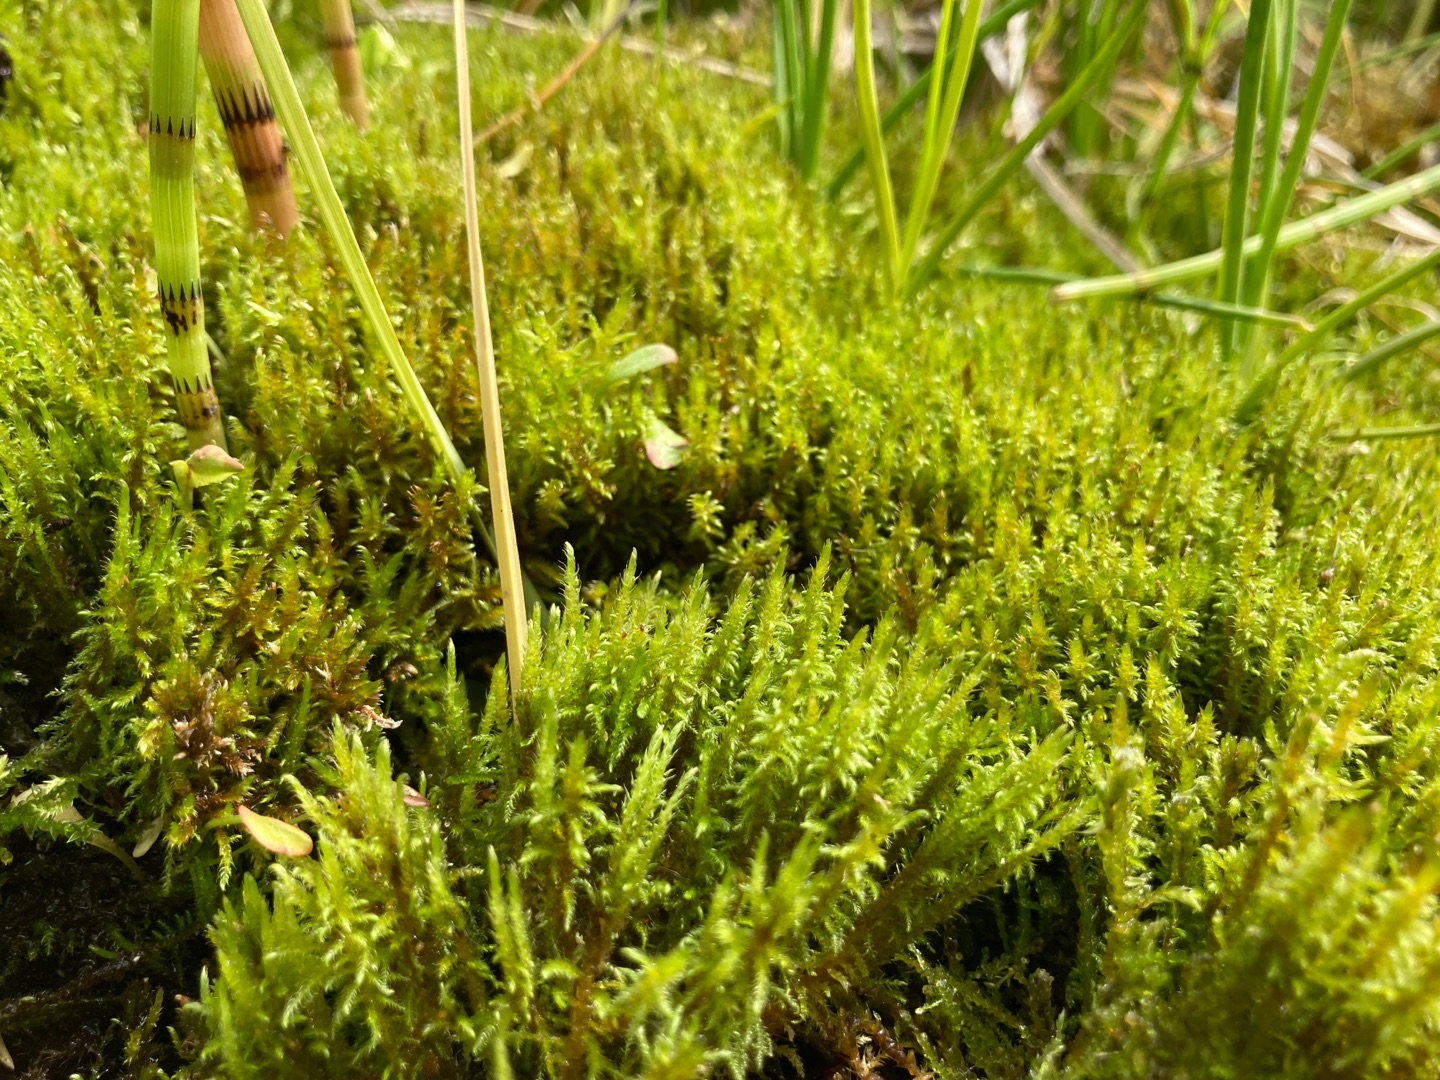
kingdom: Plantae
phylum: Bryophyta
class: Bryopsida
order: Hypnales
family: Amblystegiaceae
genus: Cratoneuron
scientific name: Cratoneuron filicinum
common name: Grøn eremitmos
